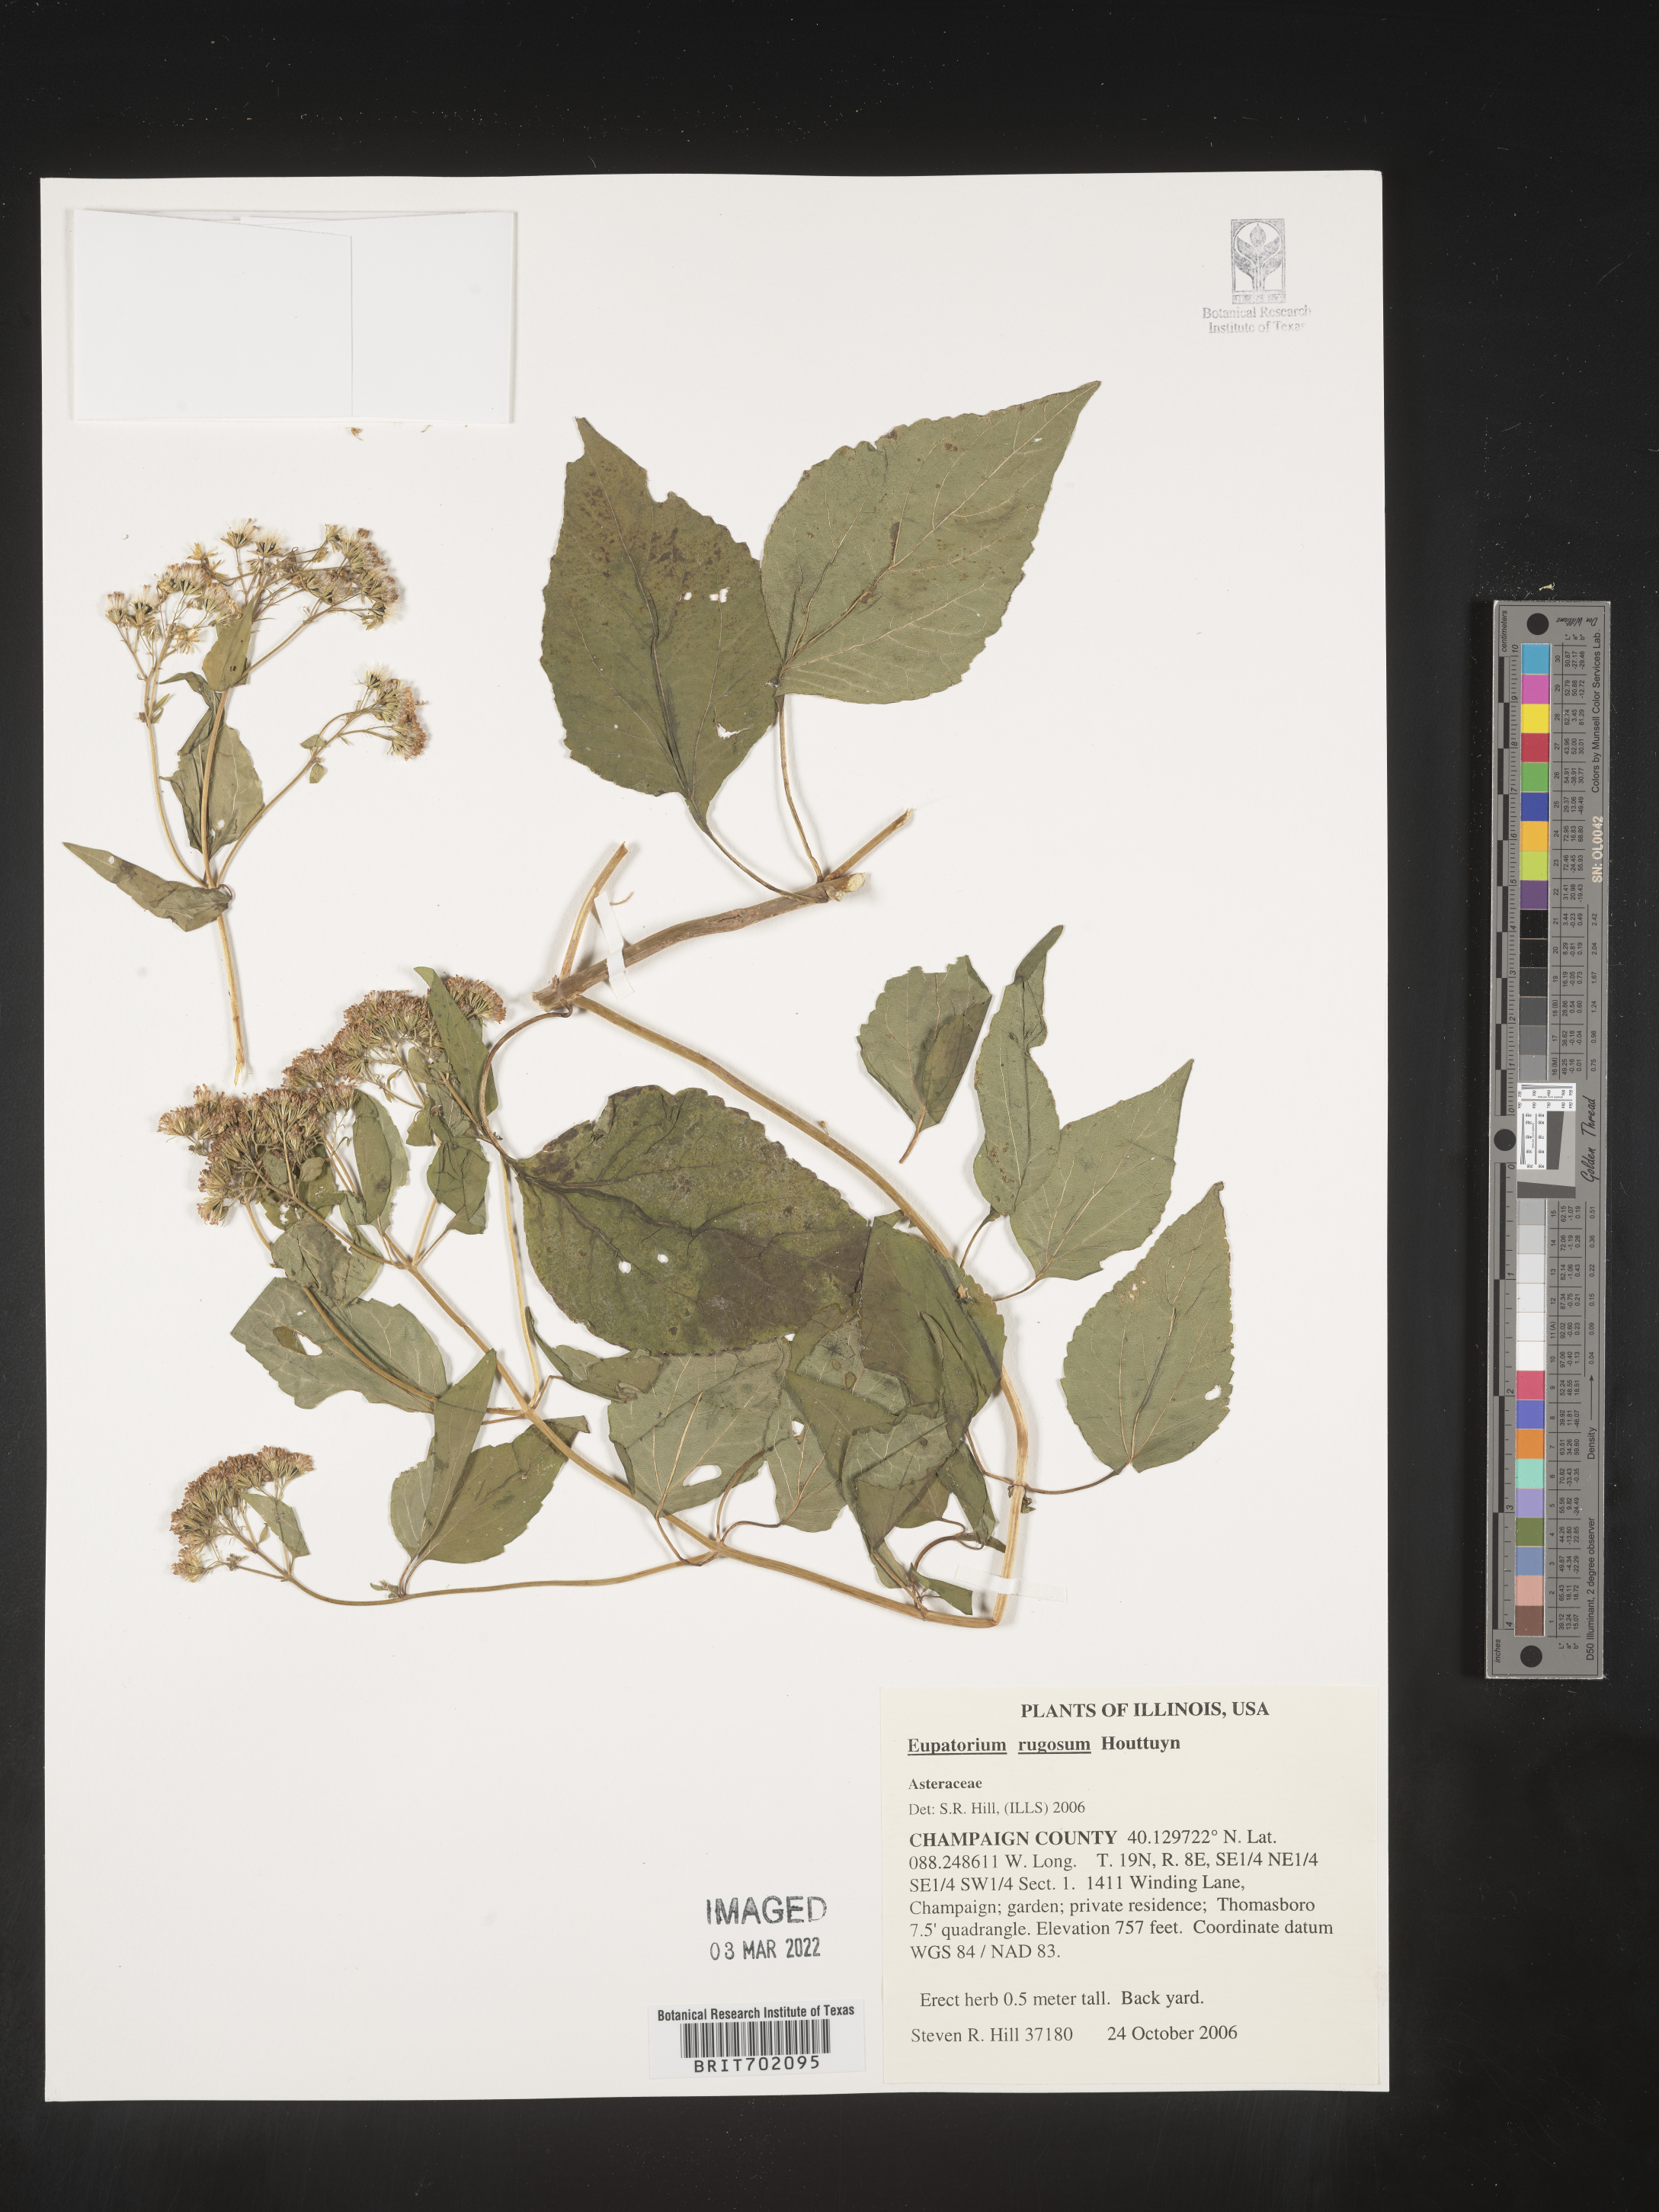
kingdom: Plantae
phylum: Tracheophyta
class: Magnoliopsida
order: Asterales
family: Asteraceae
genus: Cronquistianthus
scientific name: Cronquistianthus bulliferus
